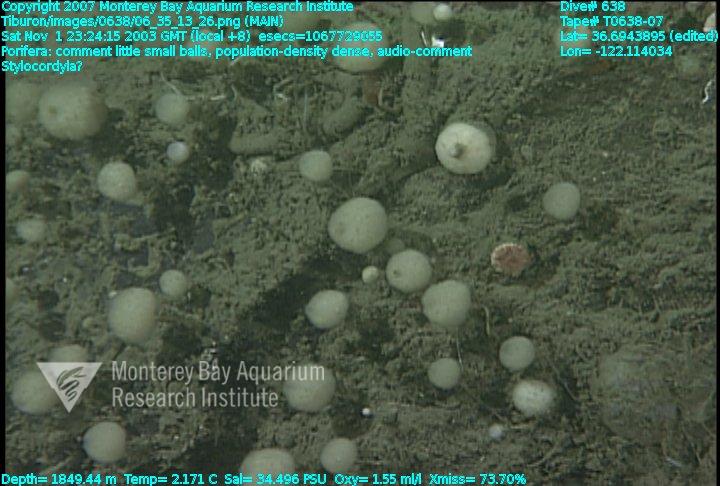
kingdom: Animalia
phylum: Porifera
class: Demospongiae
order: Suberitida
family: Stylocordylidae
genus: Stylocordyla
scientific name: Stylocordyla
